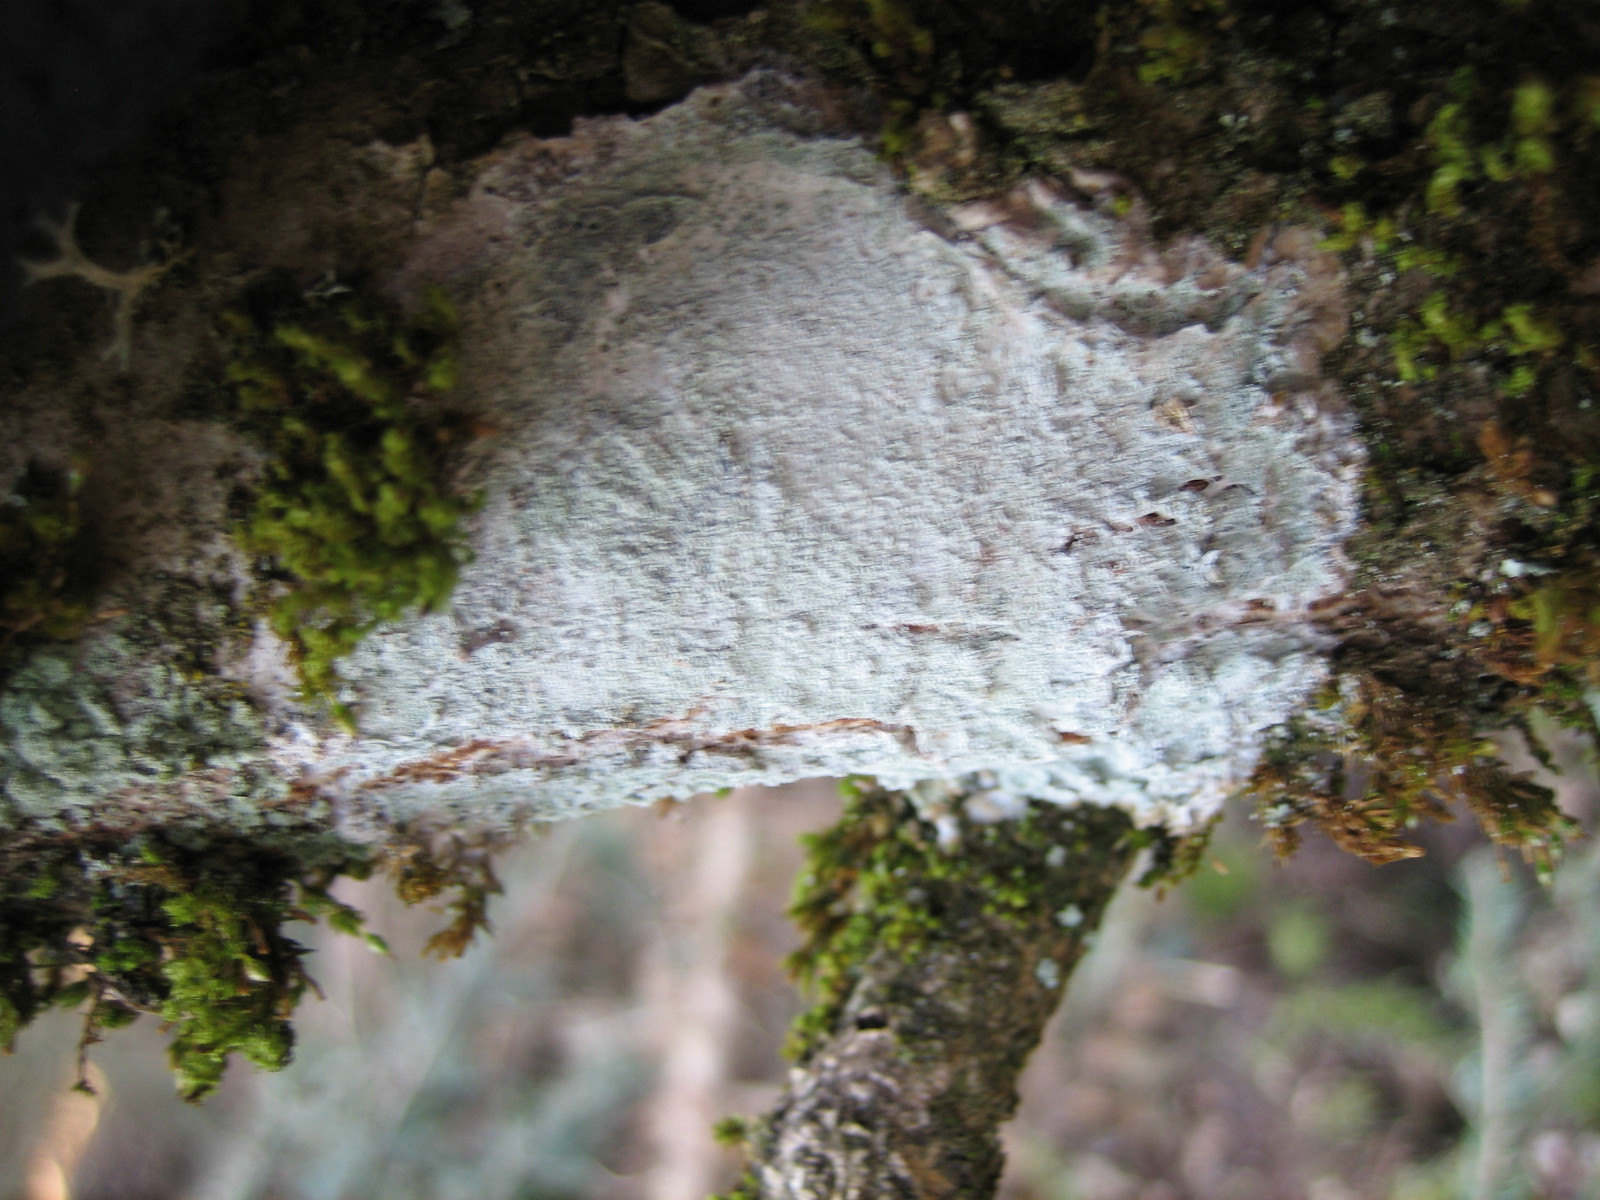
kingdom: Fungi
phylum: Ascomycota
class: Lecanoromycetes
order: Ostropales
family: Phlyctidaceae
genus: Phlyctis
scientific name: Phlyctis argena
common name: almindelig sølvlav
